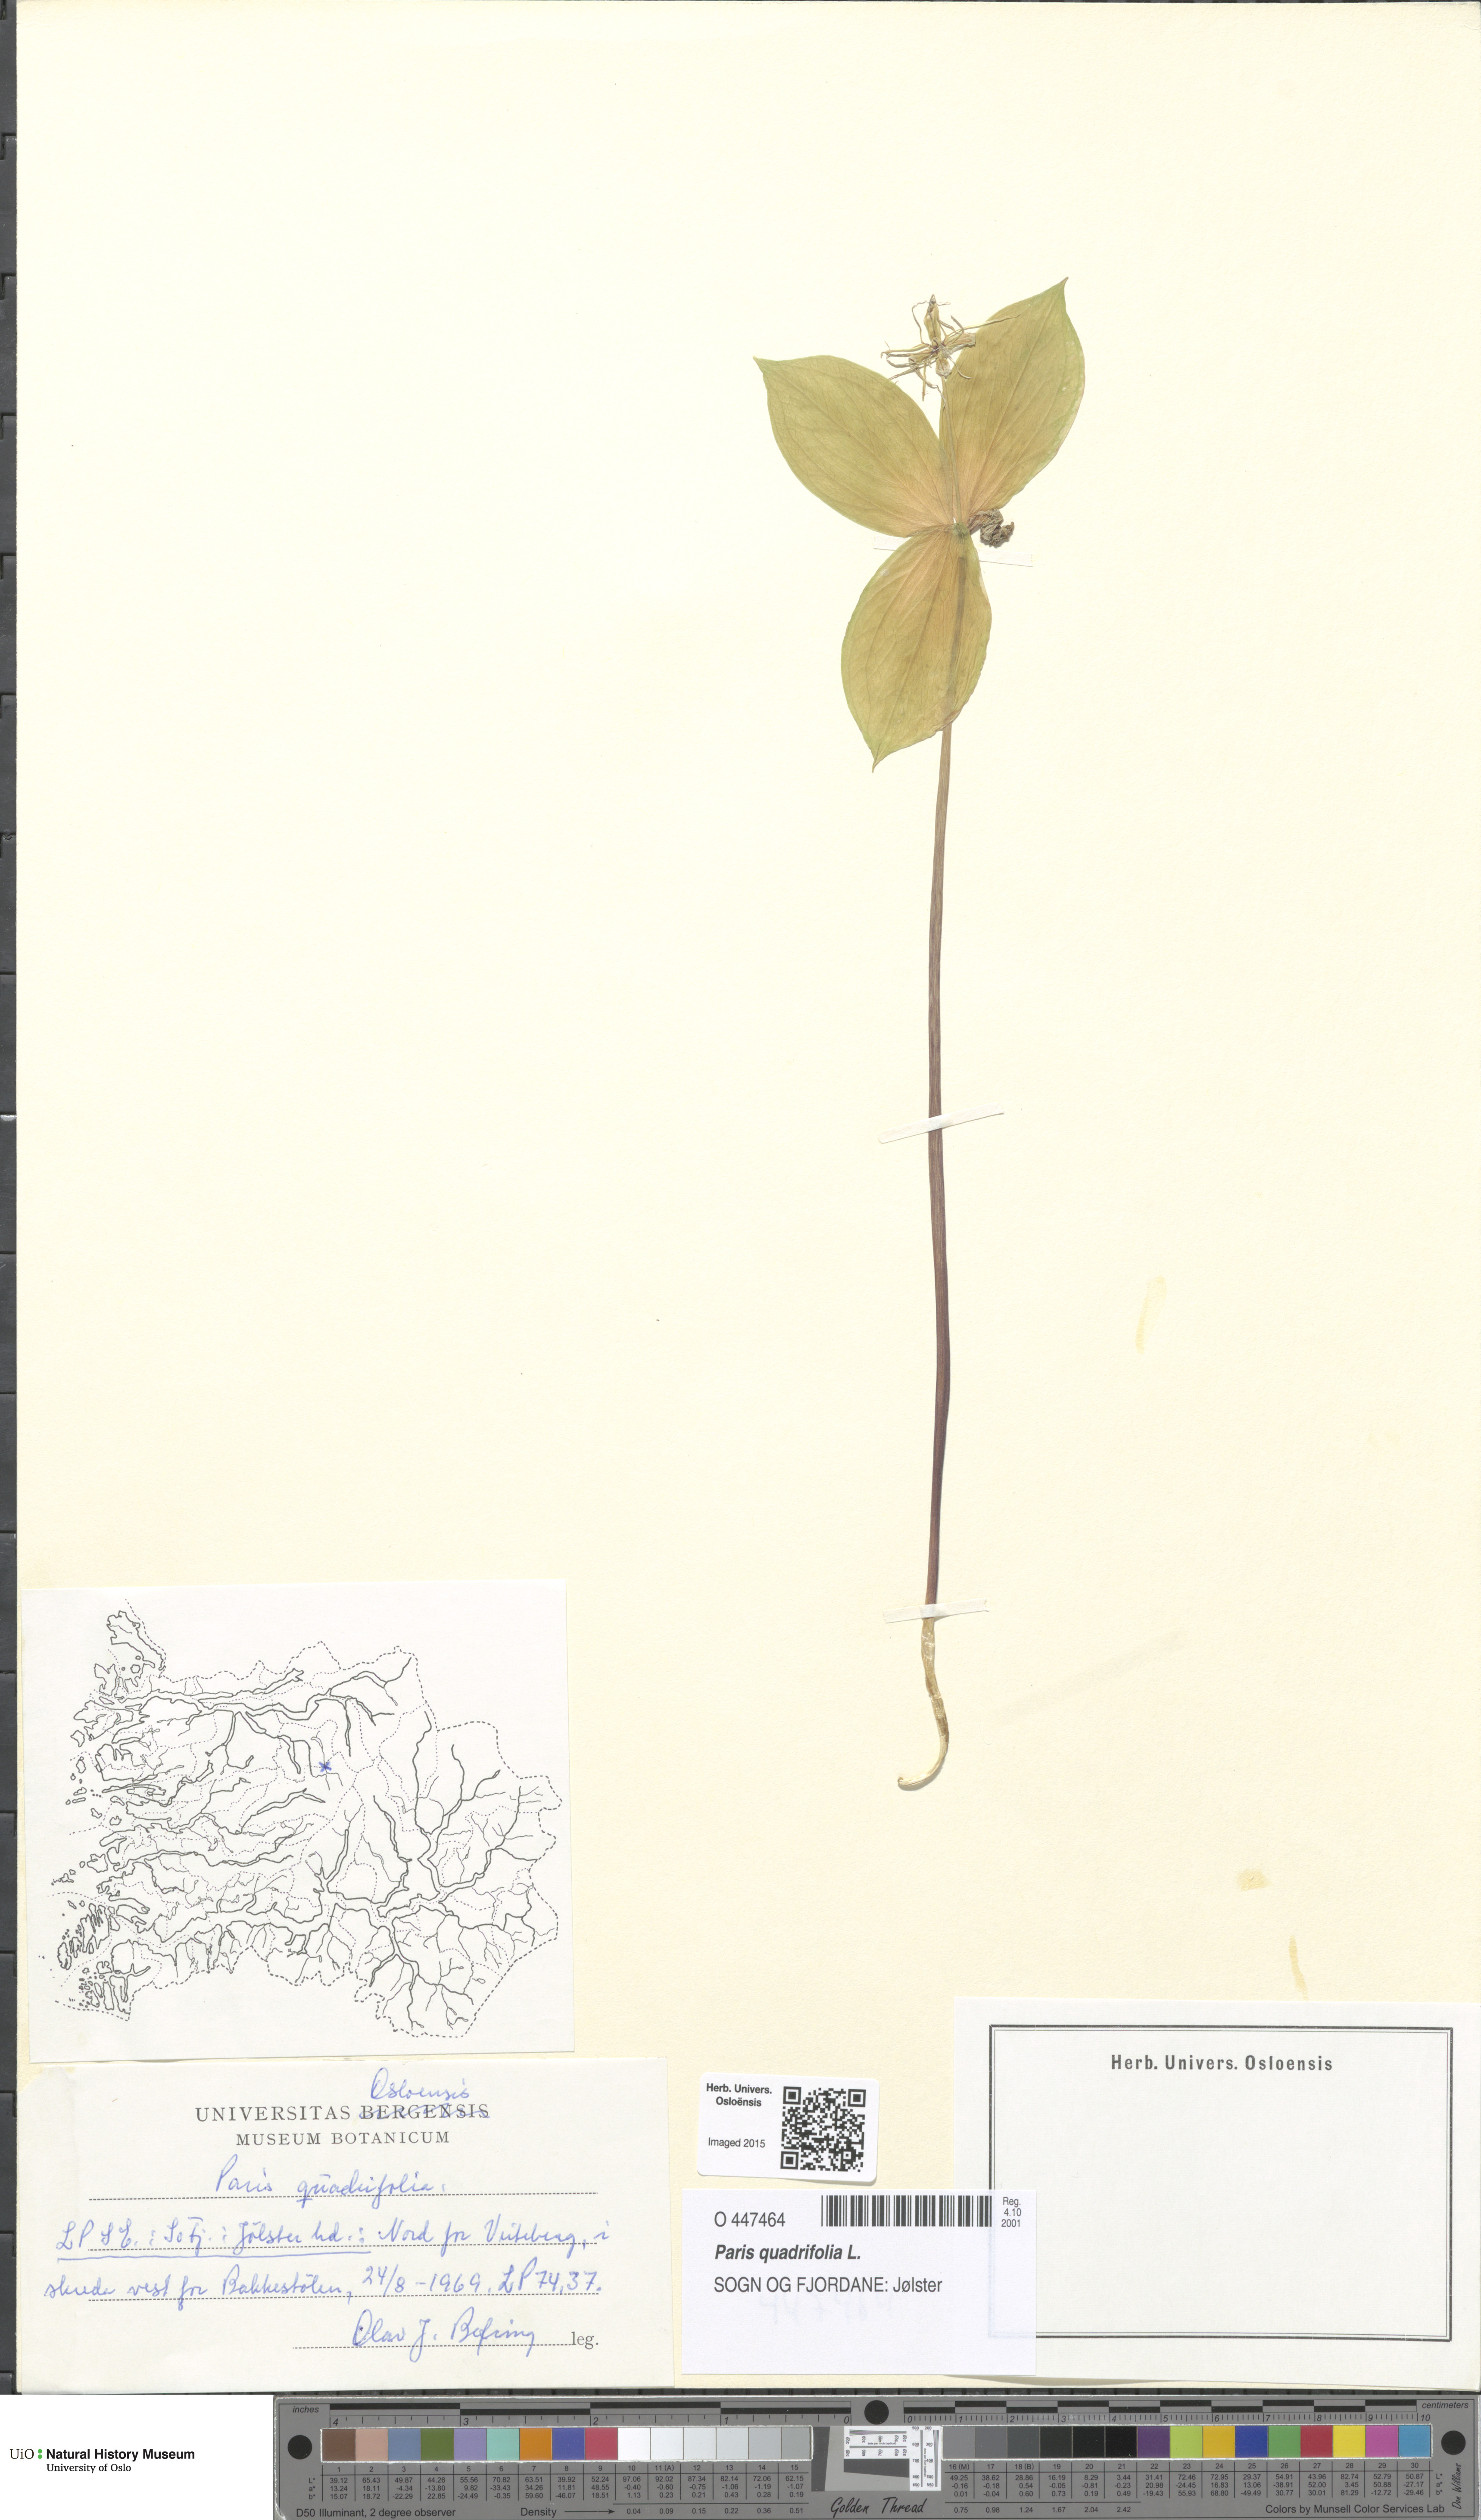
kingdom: Plantae
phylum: Tracheophyta
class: Liliopsida
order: Liliales
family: Melanthiaceae
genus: Paris
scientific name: Paris quadrifolia
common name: Herb-paris
